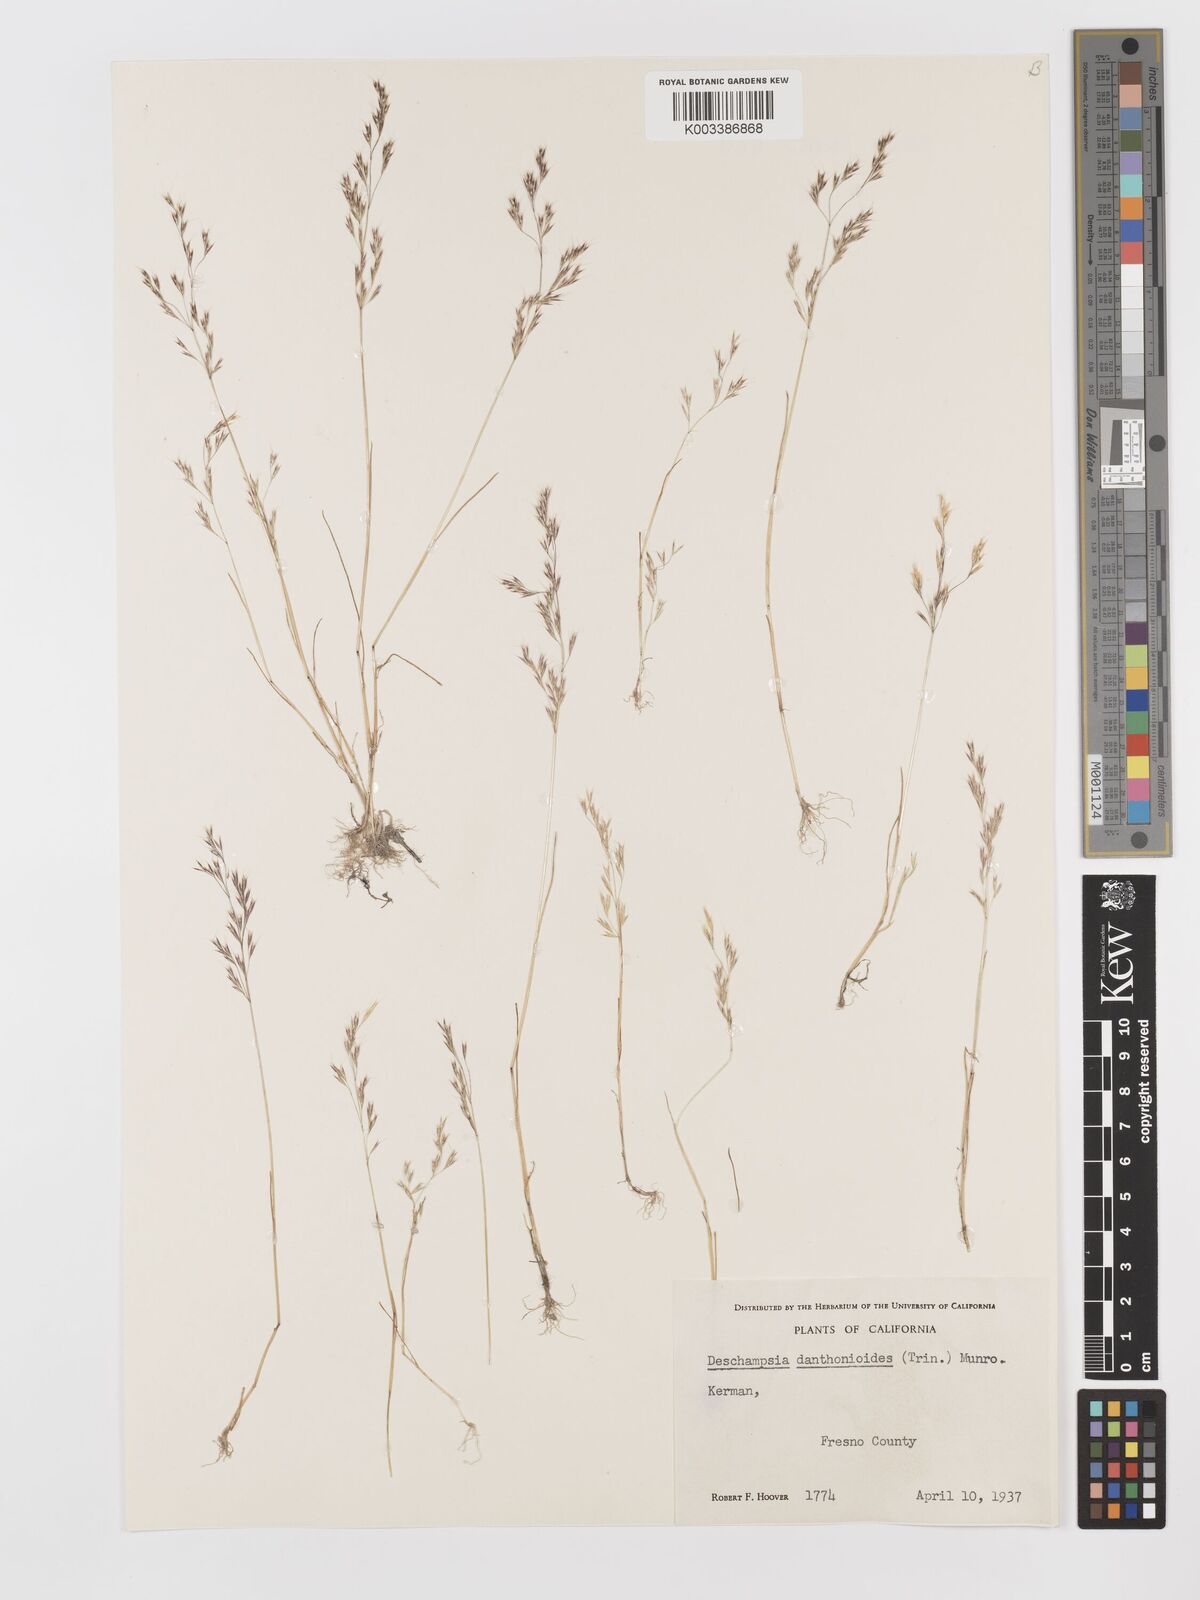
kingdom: Plantae
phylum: Tracheophyta
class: Liliopsida
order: Poales
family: Poaceae
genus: Deschampsia
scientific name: Deschampsia danthonioides
